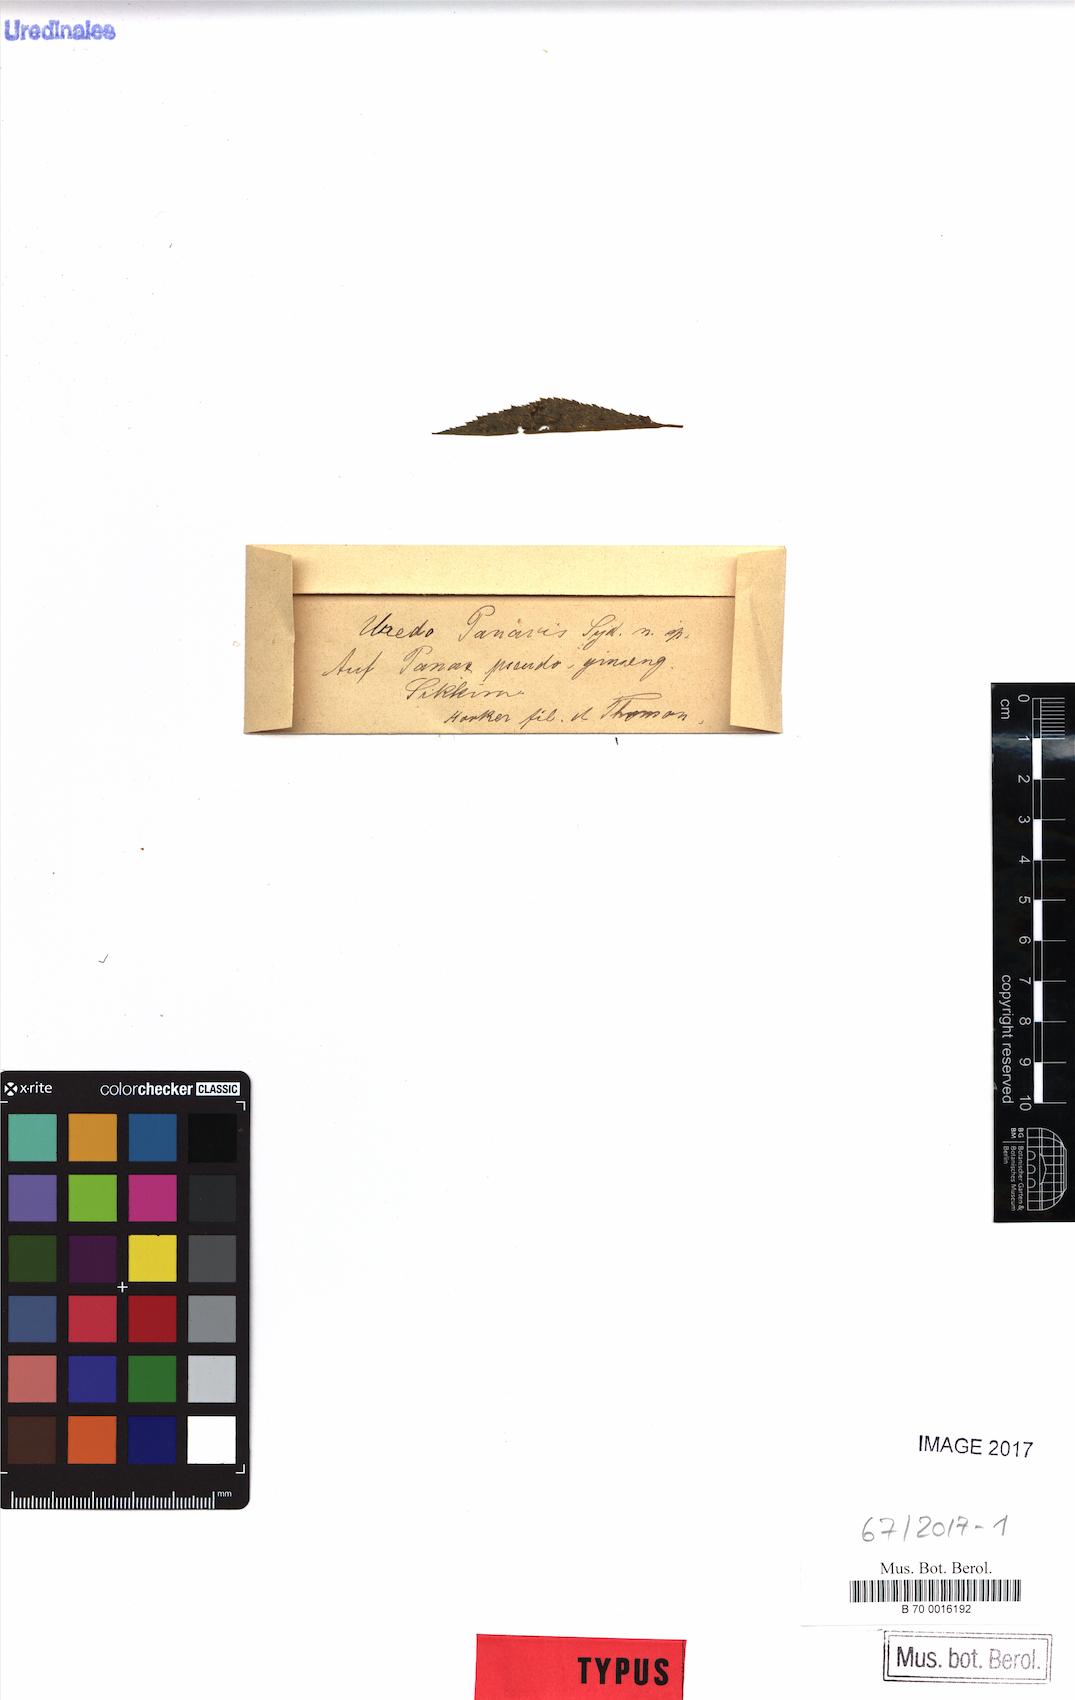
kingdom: Fungi
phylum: Basidiomycota
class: Pucciniomycetes
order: Pucciniales
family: Pucciniaceae
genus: Uredo
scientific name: Uredo panacis
